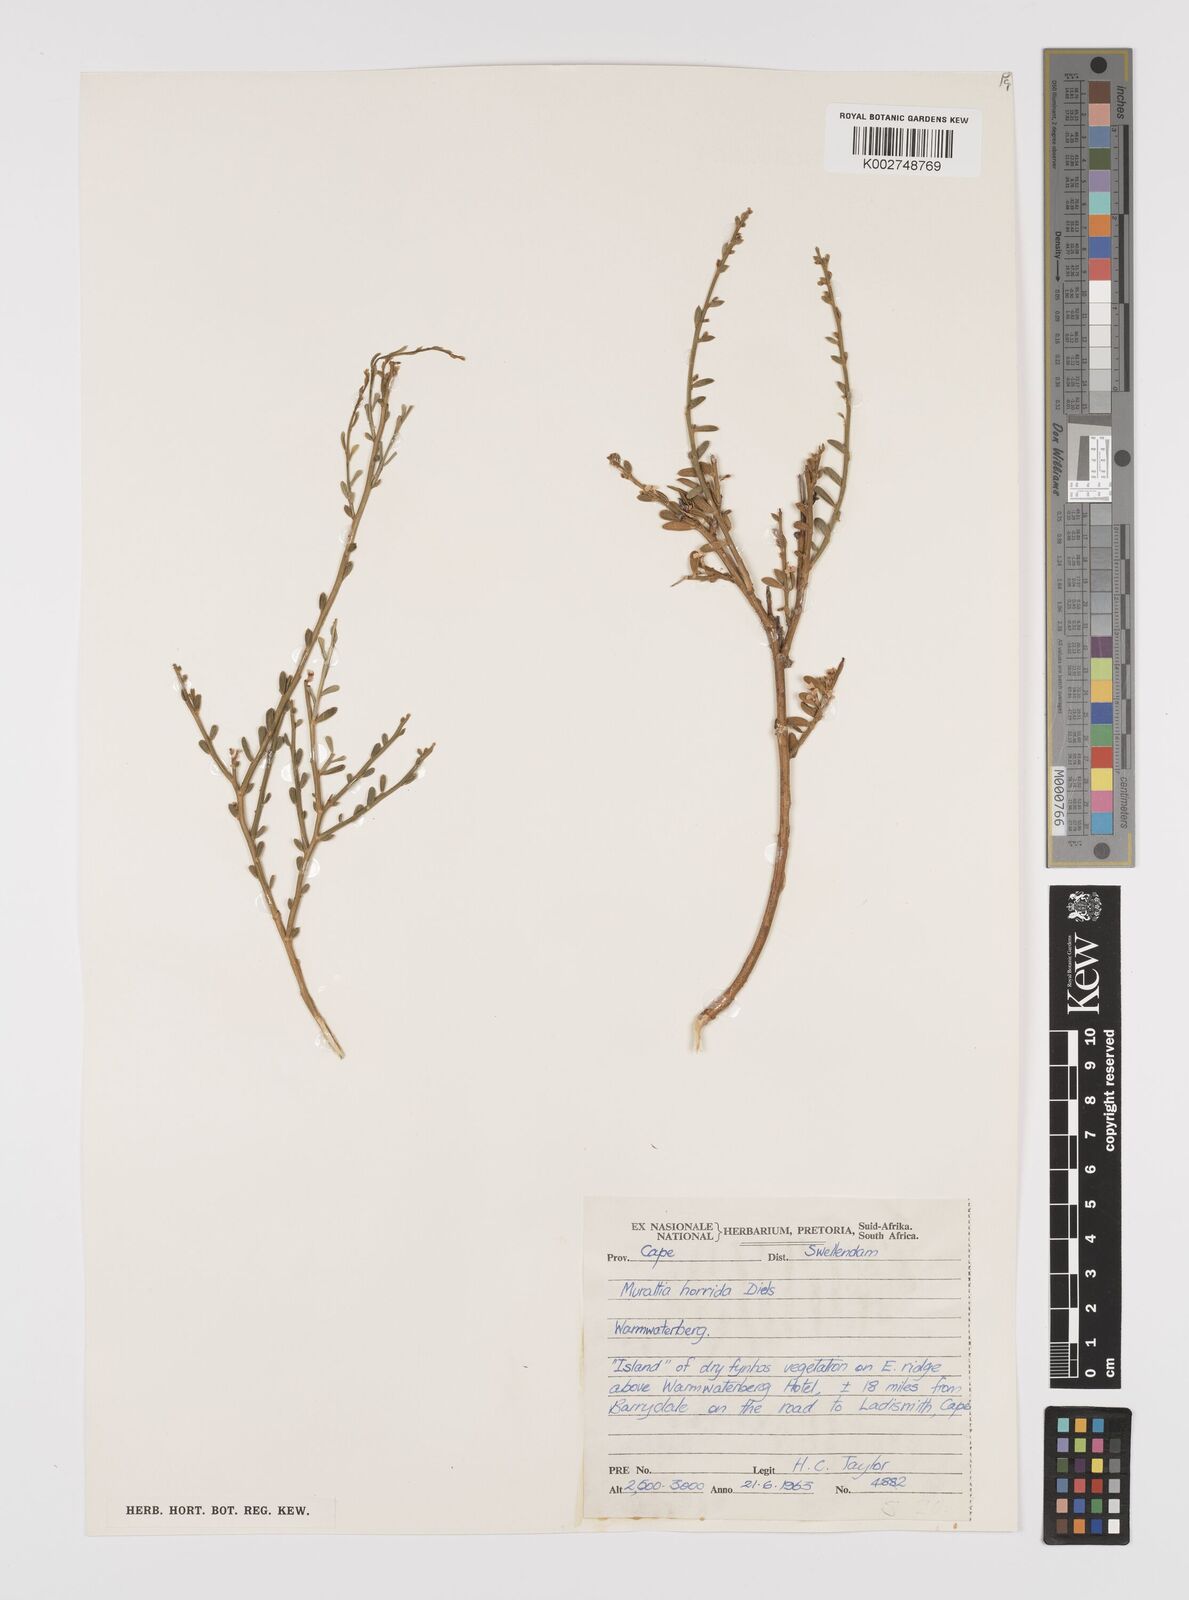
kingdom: Plantae
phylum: Tracheophyta
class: Magnoliopsida
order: Fabales
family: Polygalaceae
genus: Muraltia
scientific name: Muraltia horrida
